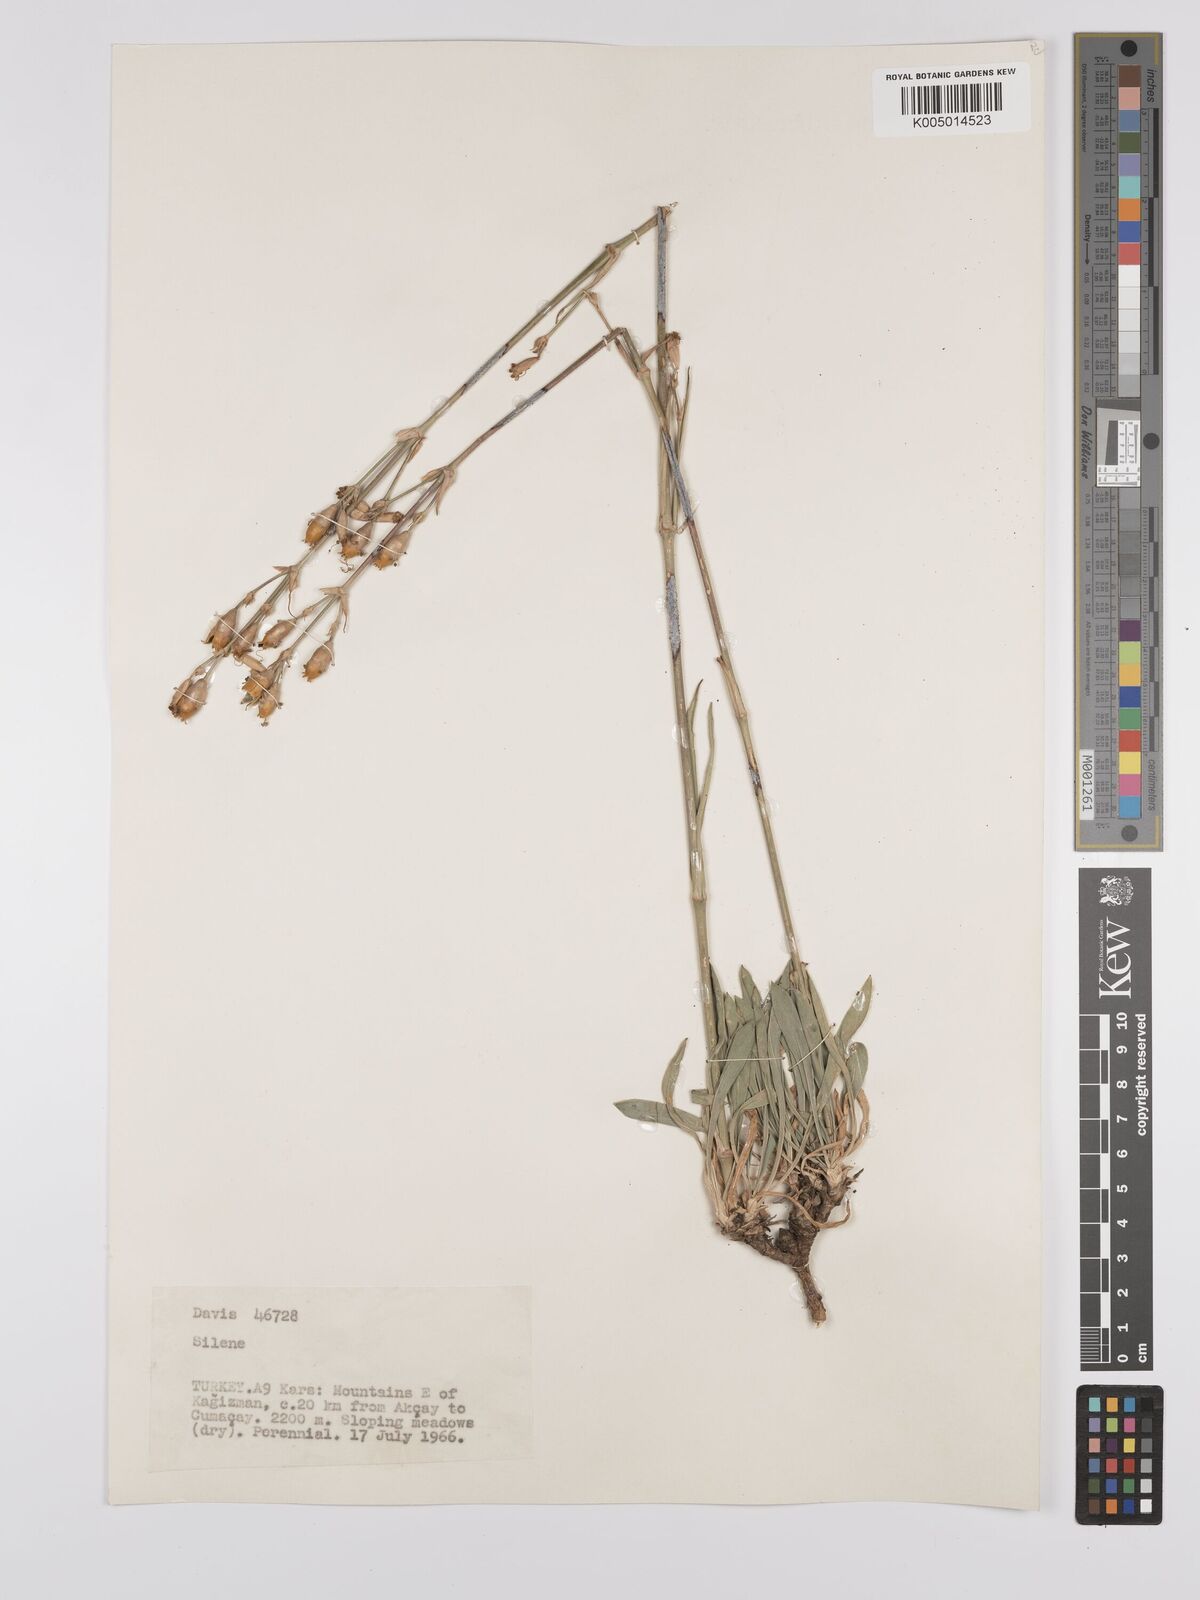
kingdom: Plantae
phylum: Tracheophyta
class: Magnoliopsida
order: Caryophyllales
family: Caryophyllaceae
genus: Silene
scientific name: Silene
